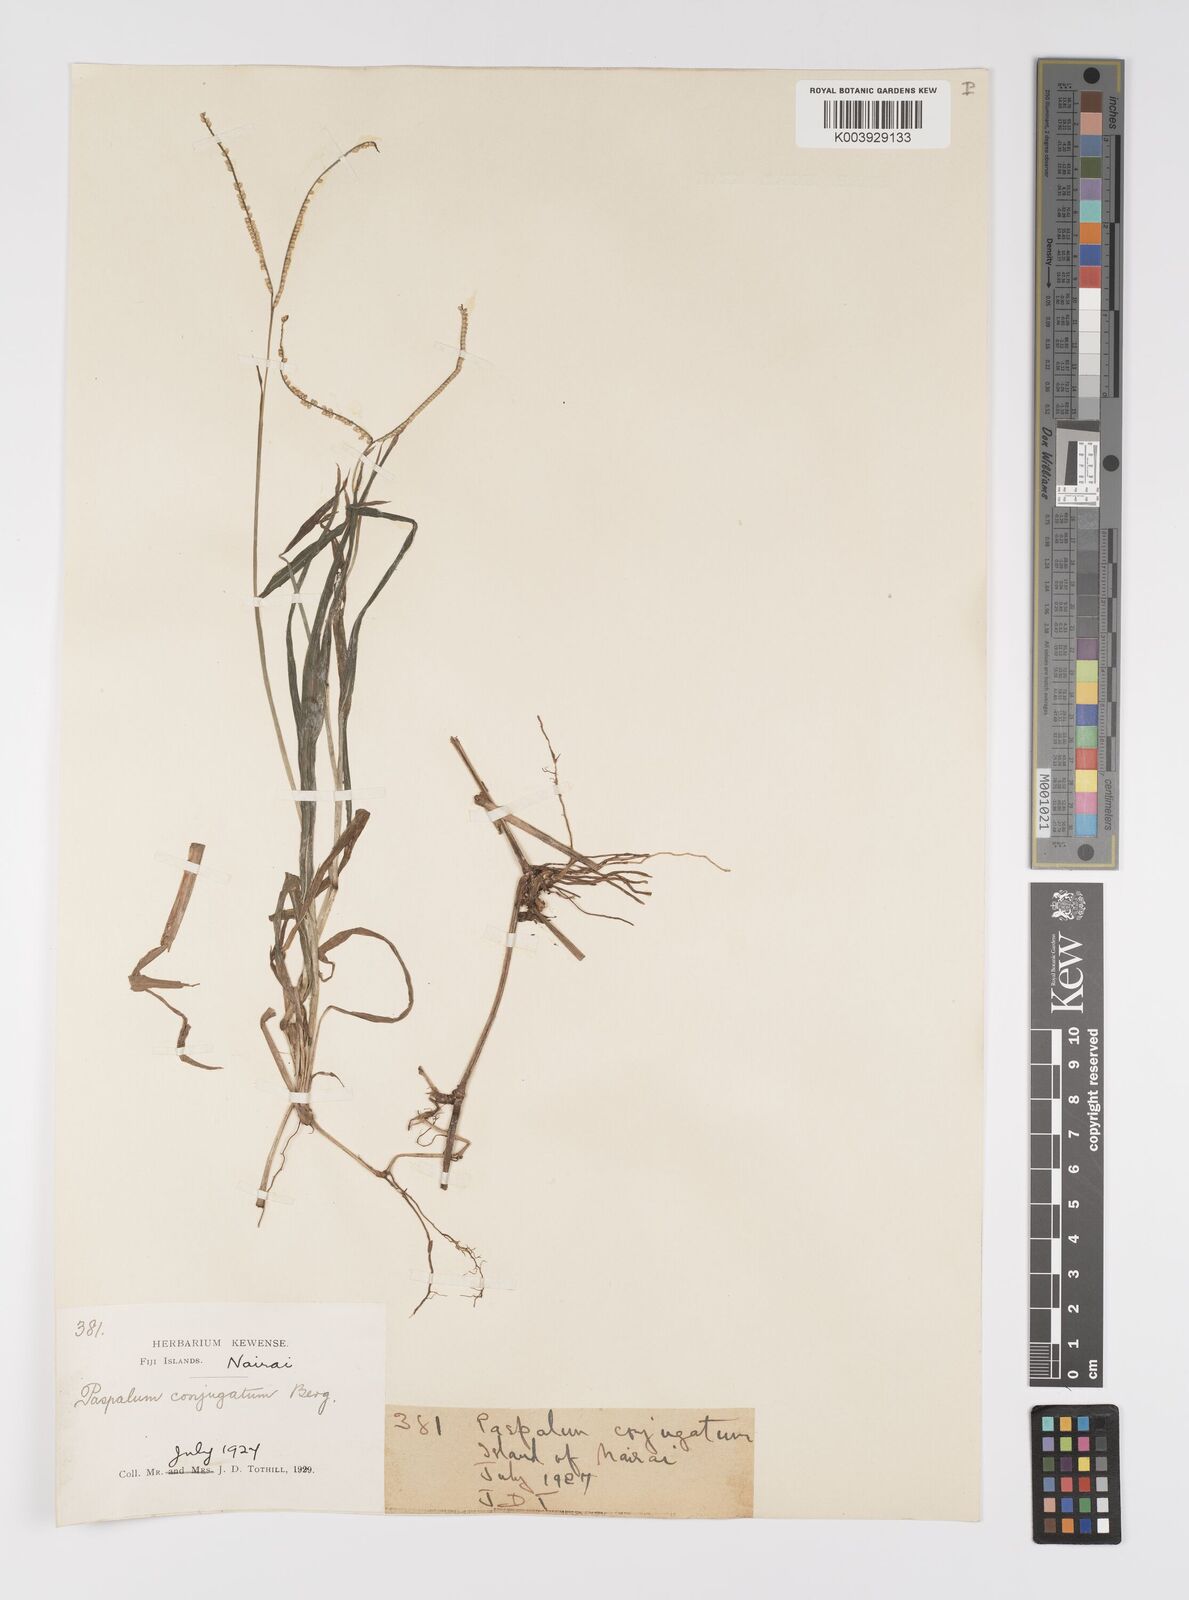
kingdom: Plantae
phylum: Tracheophyta
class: Liliopsida
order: Poales
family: Poaceae
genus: Paspalum
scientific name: Paspalum conjugatum
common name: Hilograss
